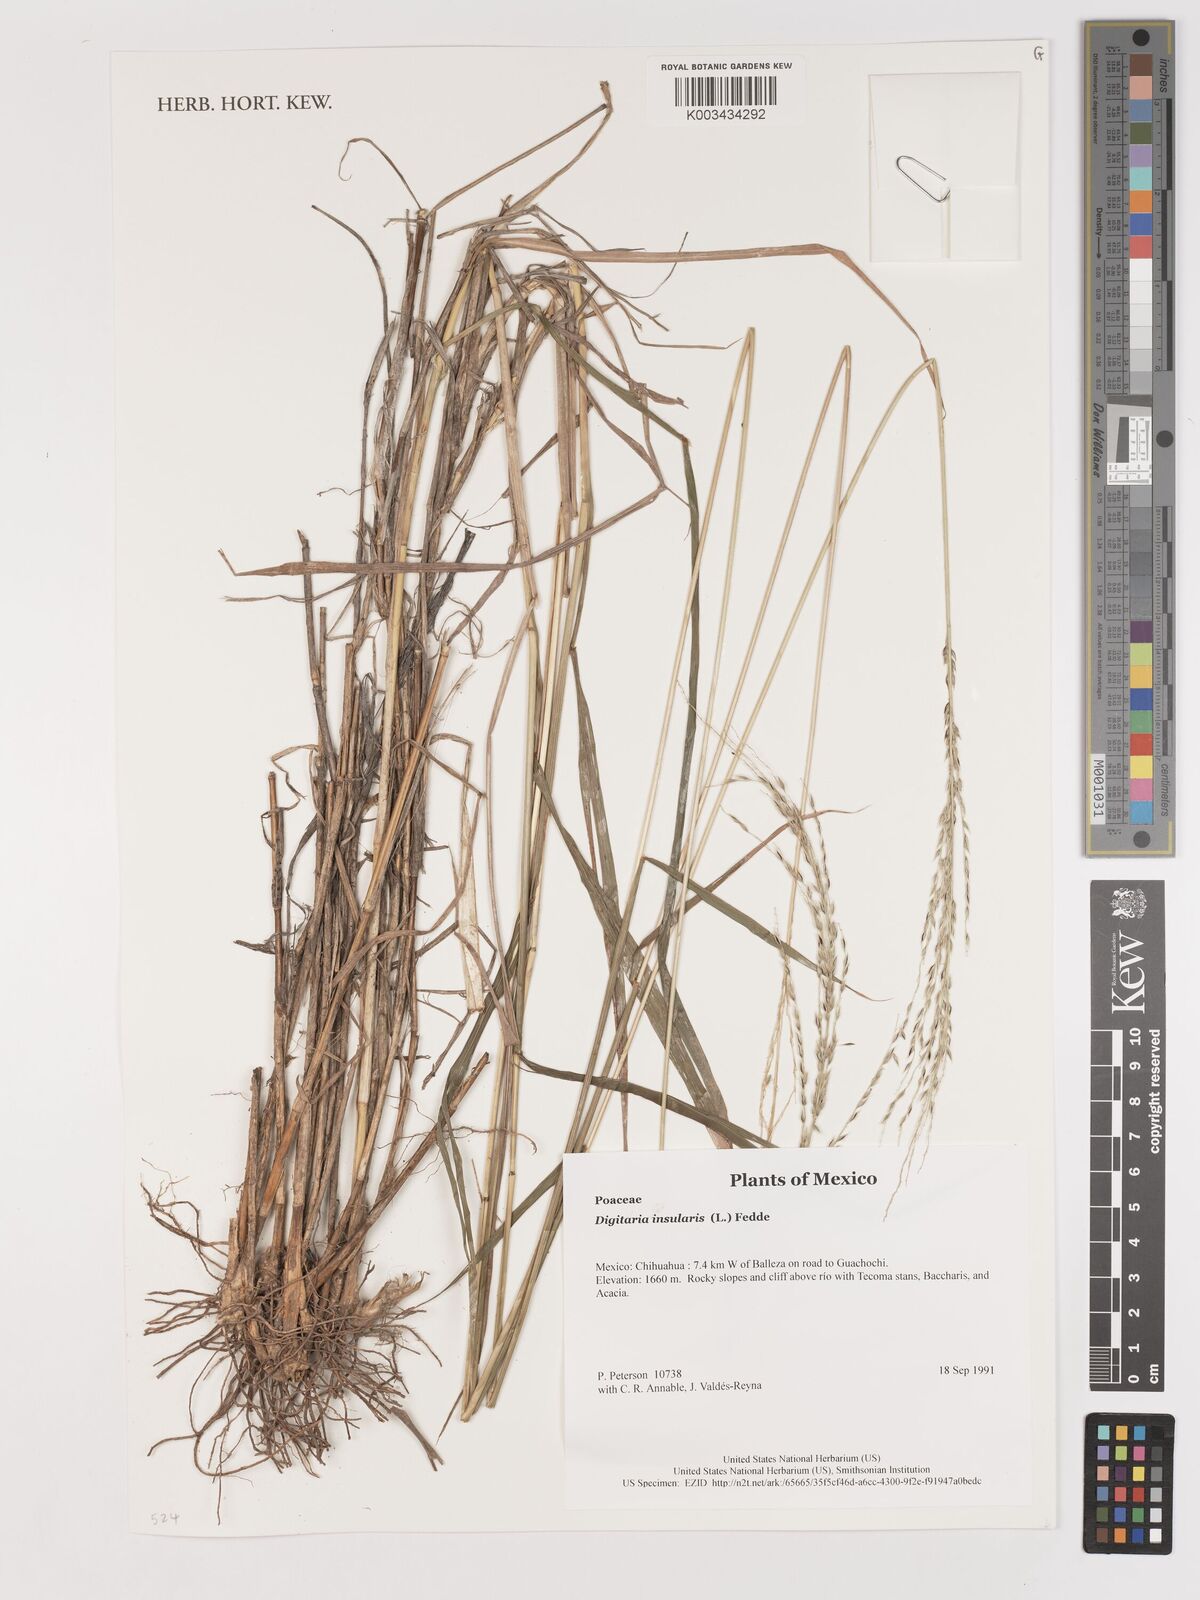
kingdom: Plantae
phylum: Tracheophyta
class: Liliopsida
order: Poales
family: Poaceae
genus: Digitaria
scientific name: Digitaria insularis
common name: Sourgrass
